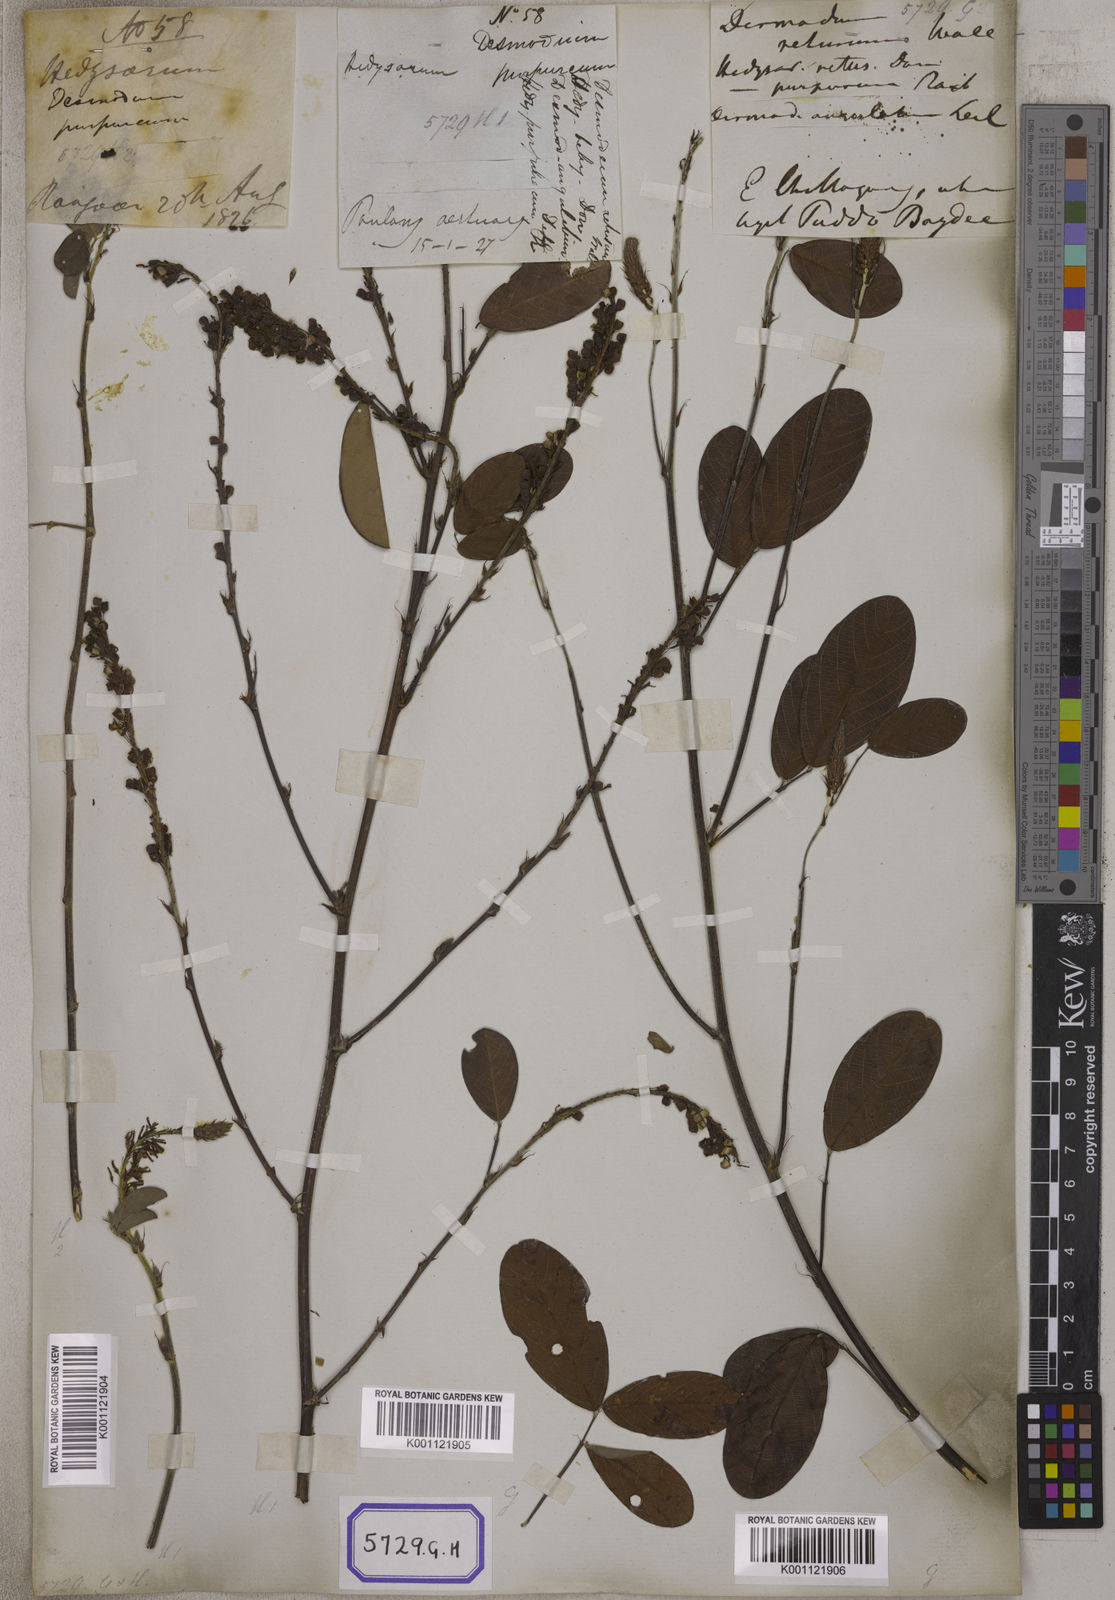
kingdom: Plantae
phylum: Tracheophyta
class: Magnoliopsida
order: Fabales
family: Fabaceae
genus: Desmodium
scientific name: Desmodium
